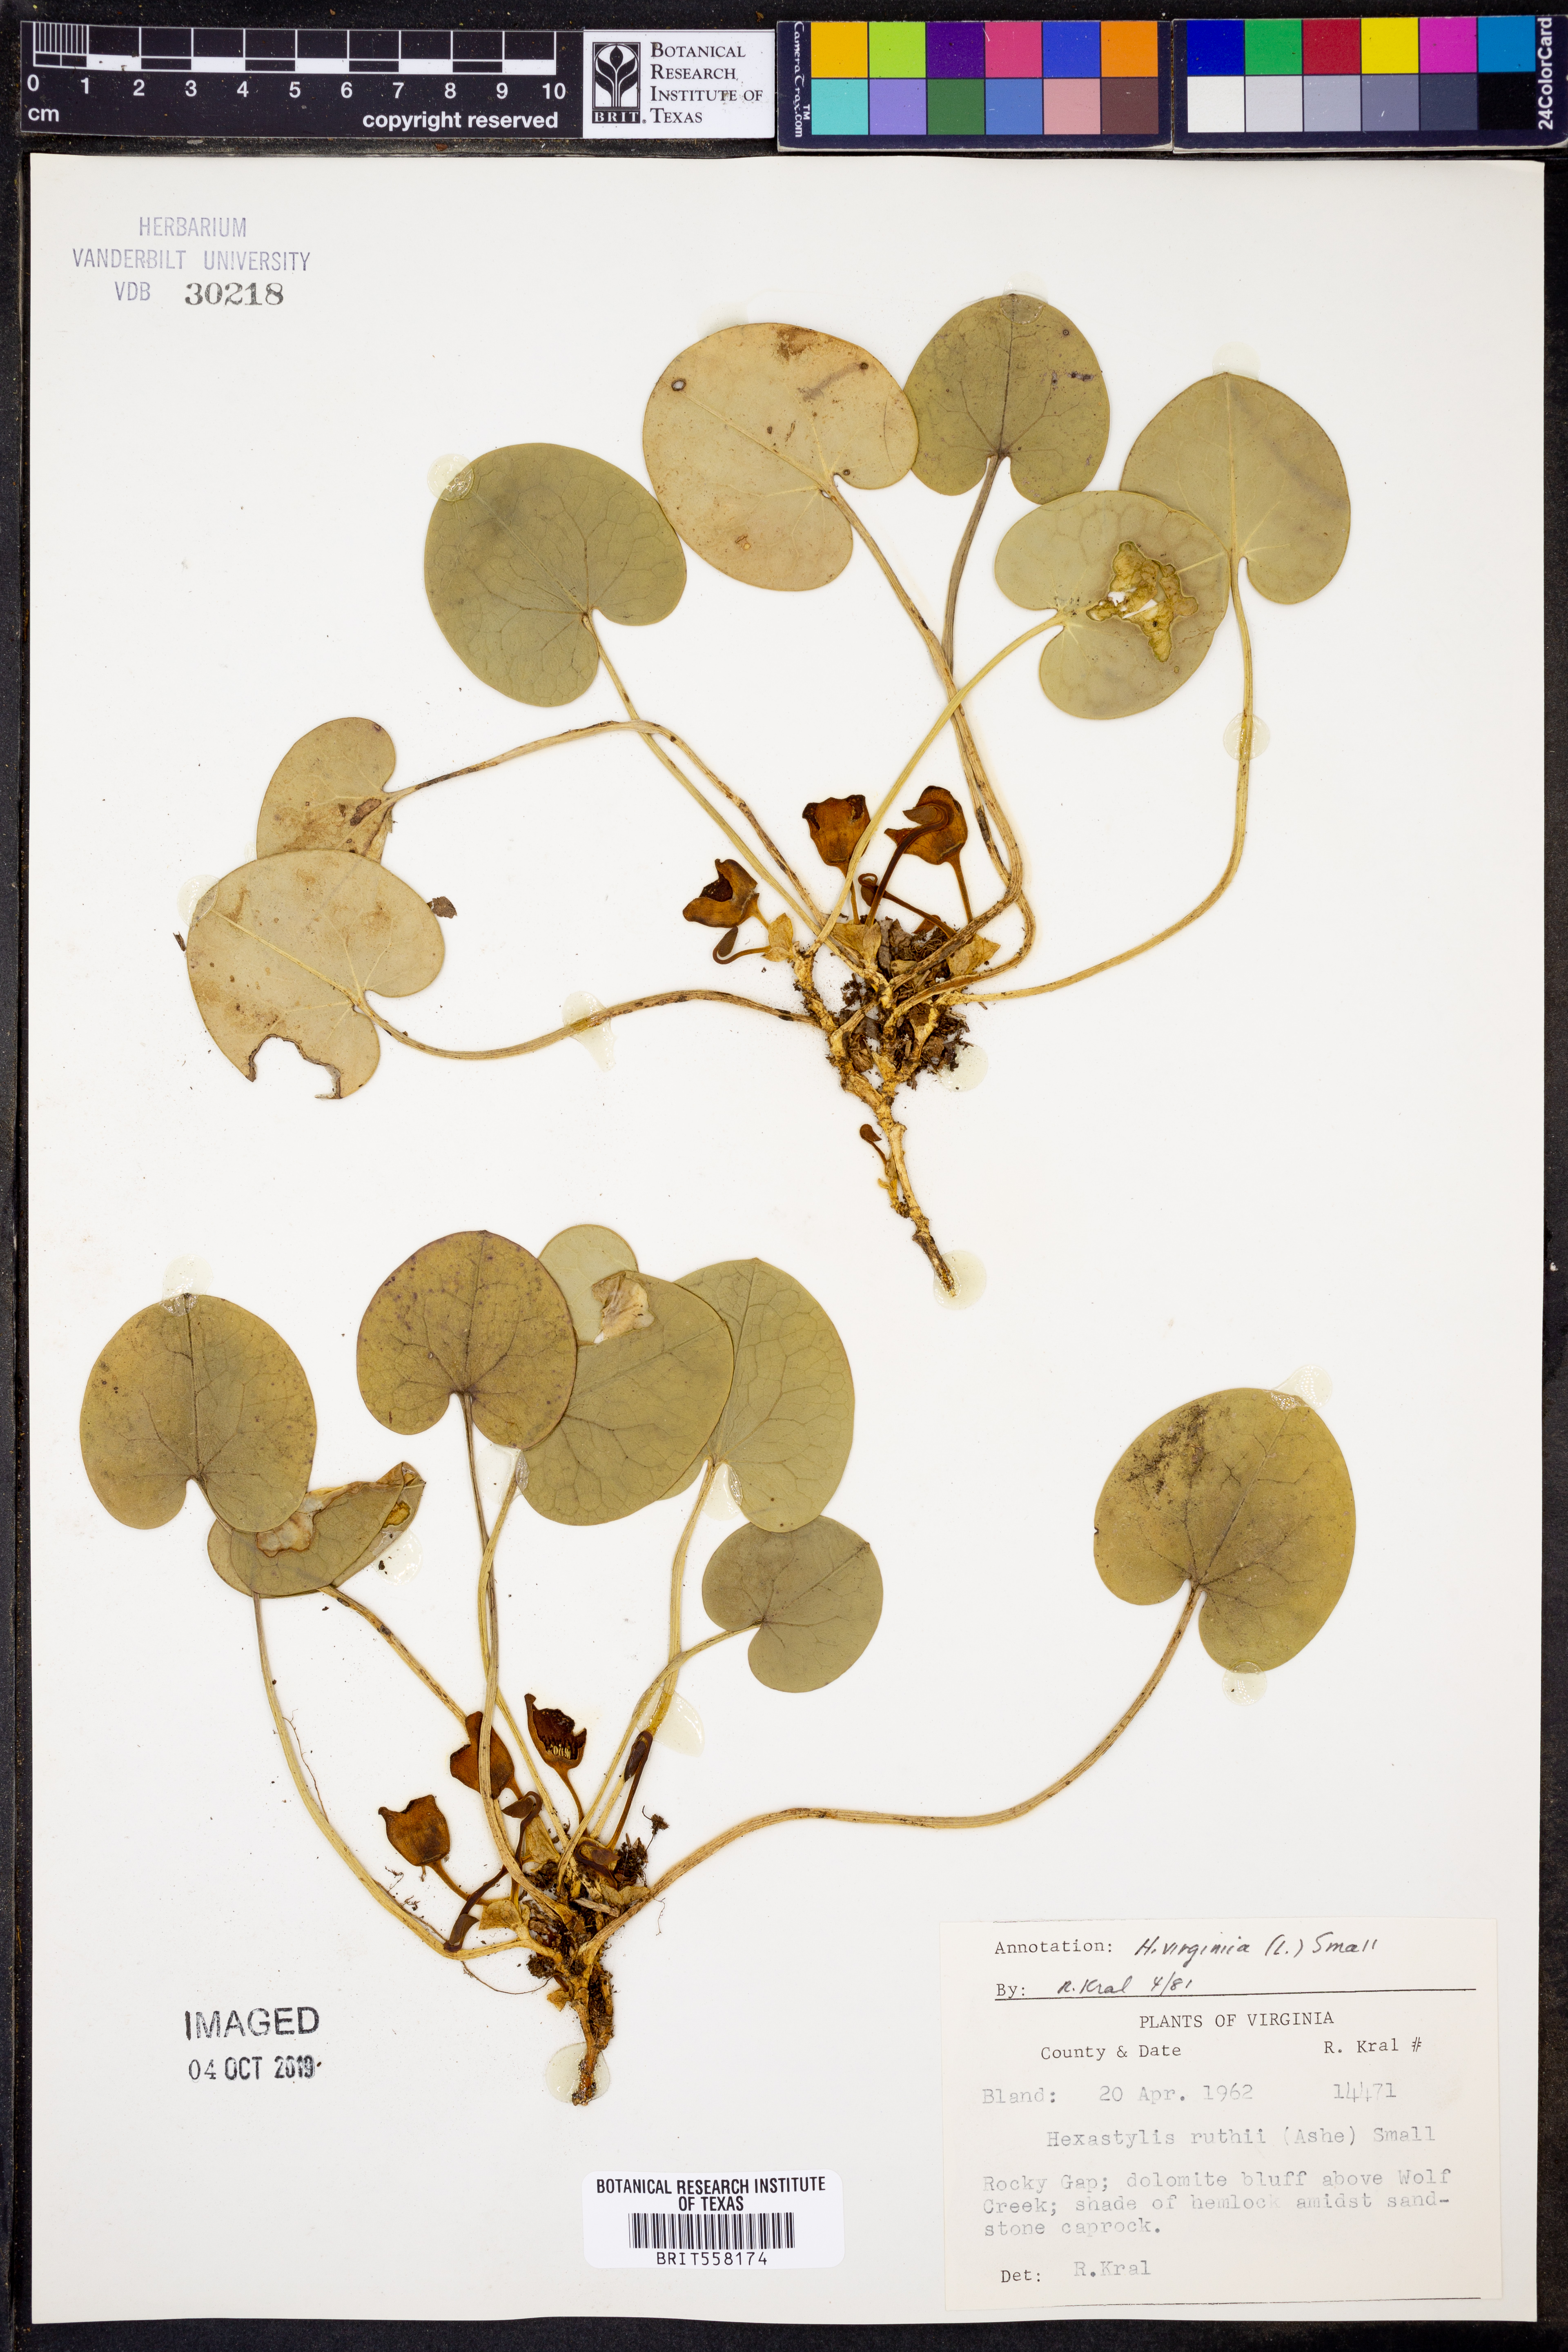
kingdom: Plantae
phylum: Tracheophyta
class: Magnoliopsida
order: Piperales
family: Aristolochiaceae
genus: Hexastylis
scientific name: Hexastylis virginica
